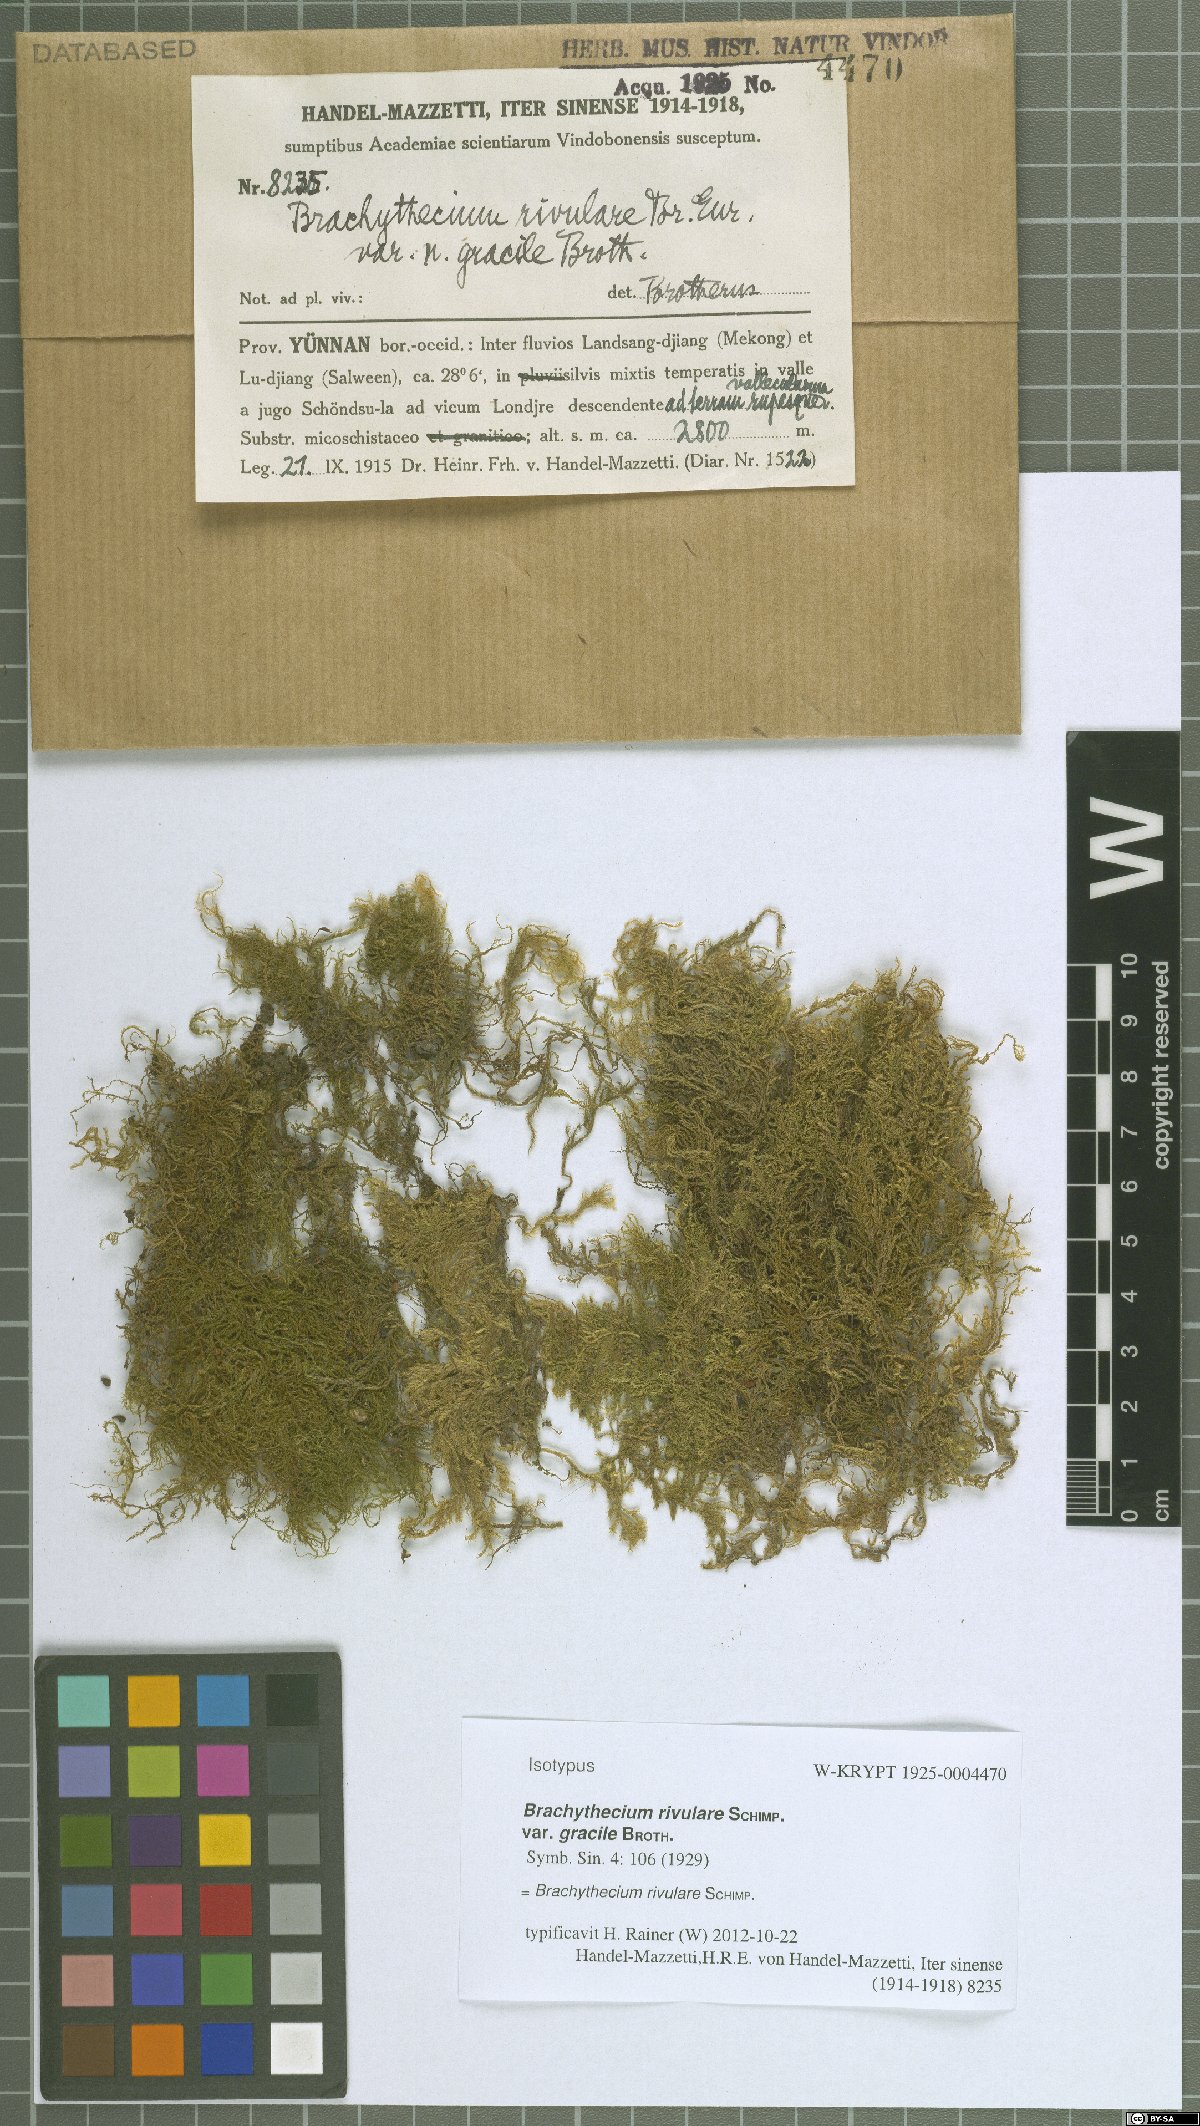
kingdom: Plantae
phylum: Bryophyta
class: Bryopsida
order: Hypnales
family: Brachytheciaceae
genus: Brachythecium
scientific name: Brachythecium rivulare
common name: River ragged moss
